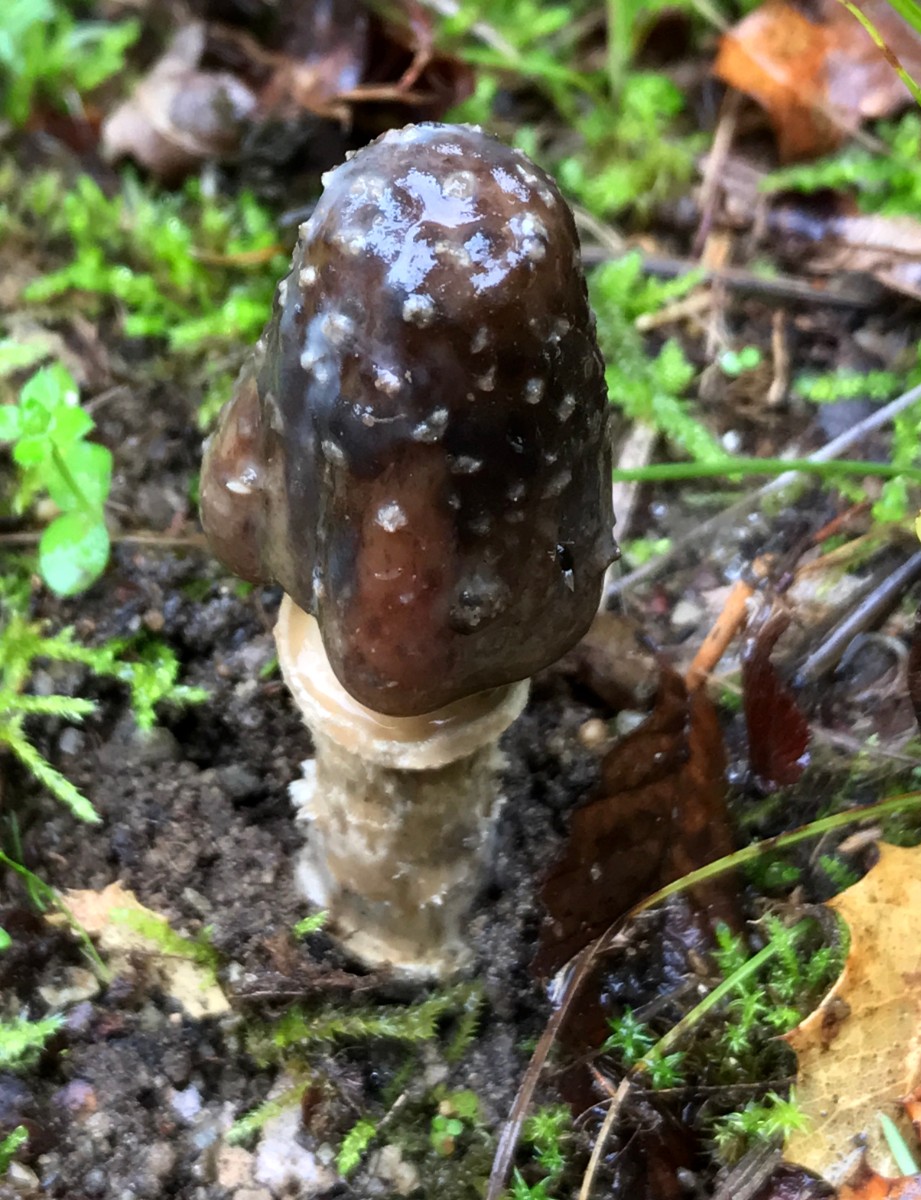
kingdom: Fungi
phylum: Basidiomycota
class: Agaricomycetes
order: Agaricales
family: Amanitaceae
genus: Amanita
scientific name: Amanita pantherina
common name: panter-fluesvamp
